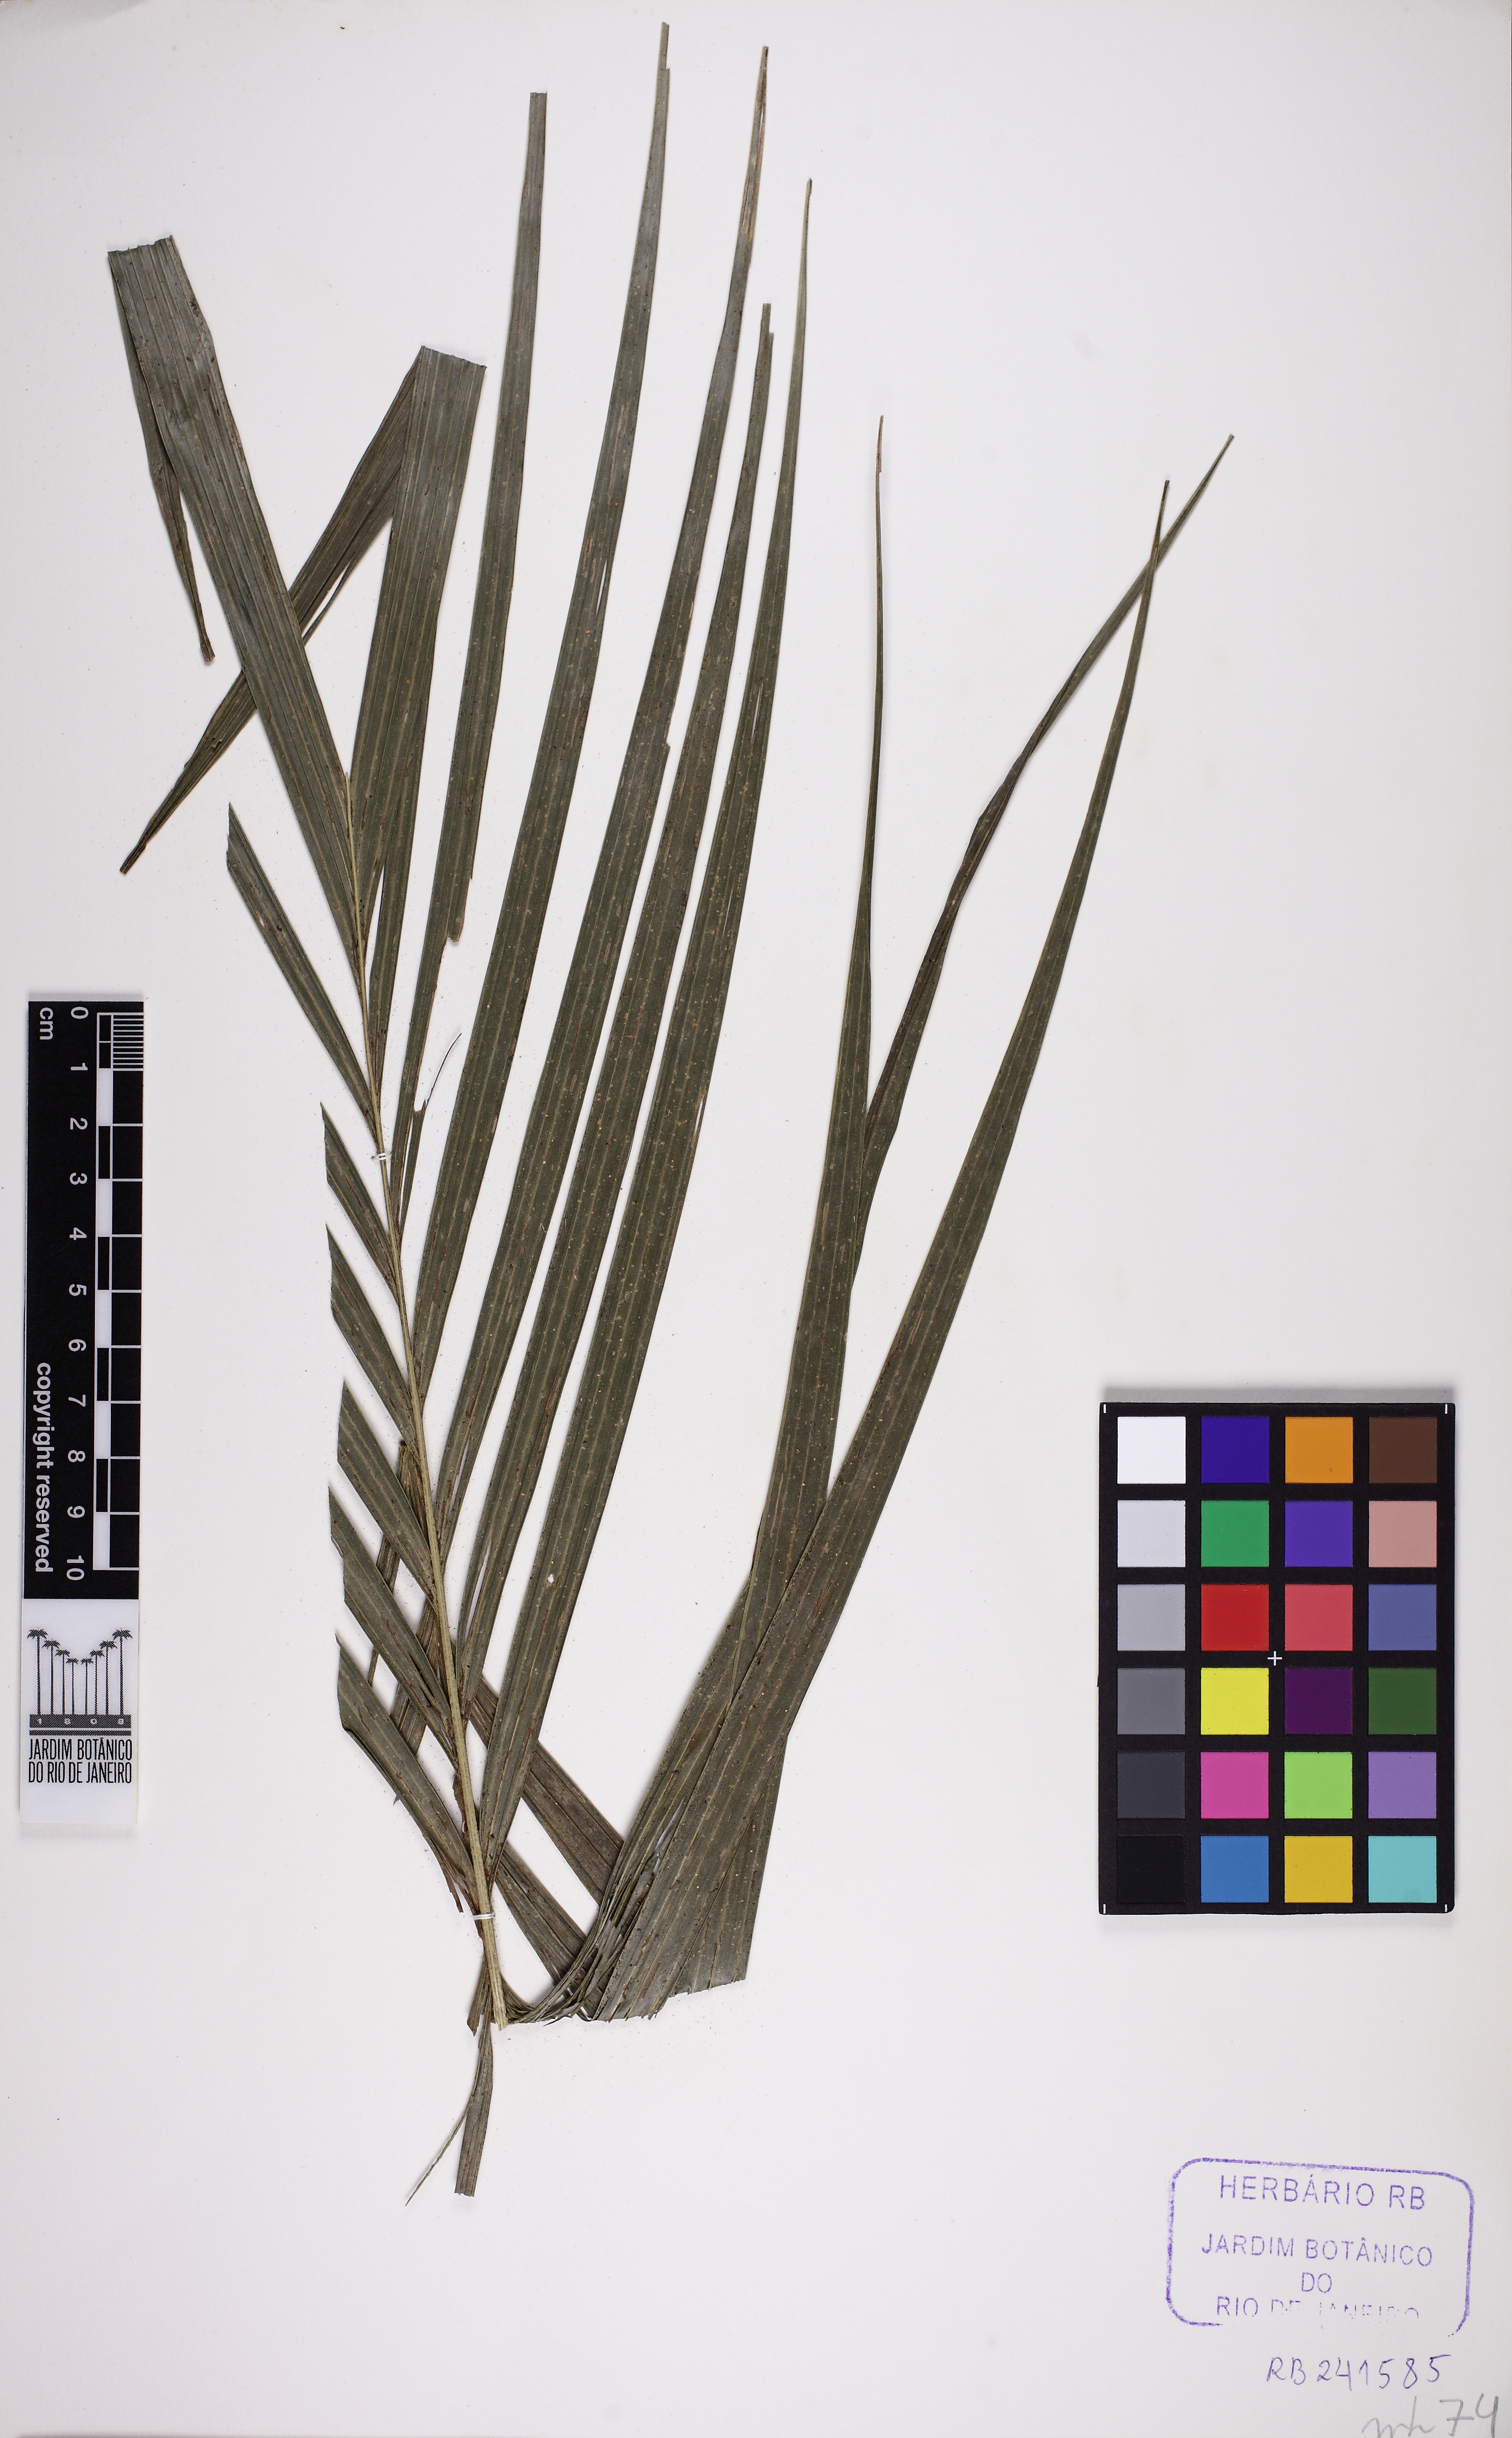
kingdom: Plantae
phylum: Tracheophyta
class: Liliopsida
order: Arecales
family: Arecaceae
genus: Geonoma
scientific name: Geonoma schottiana
